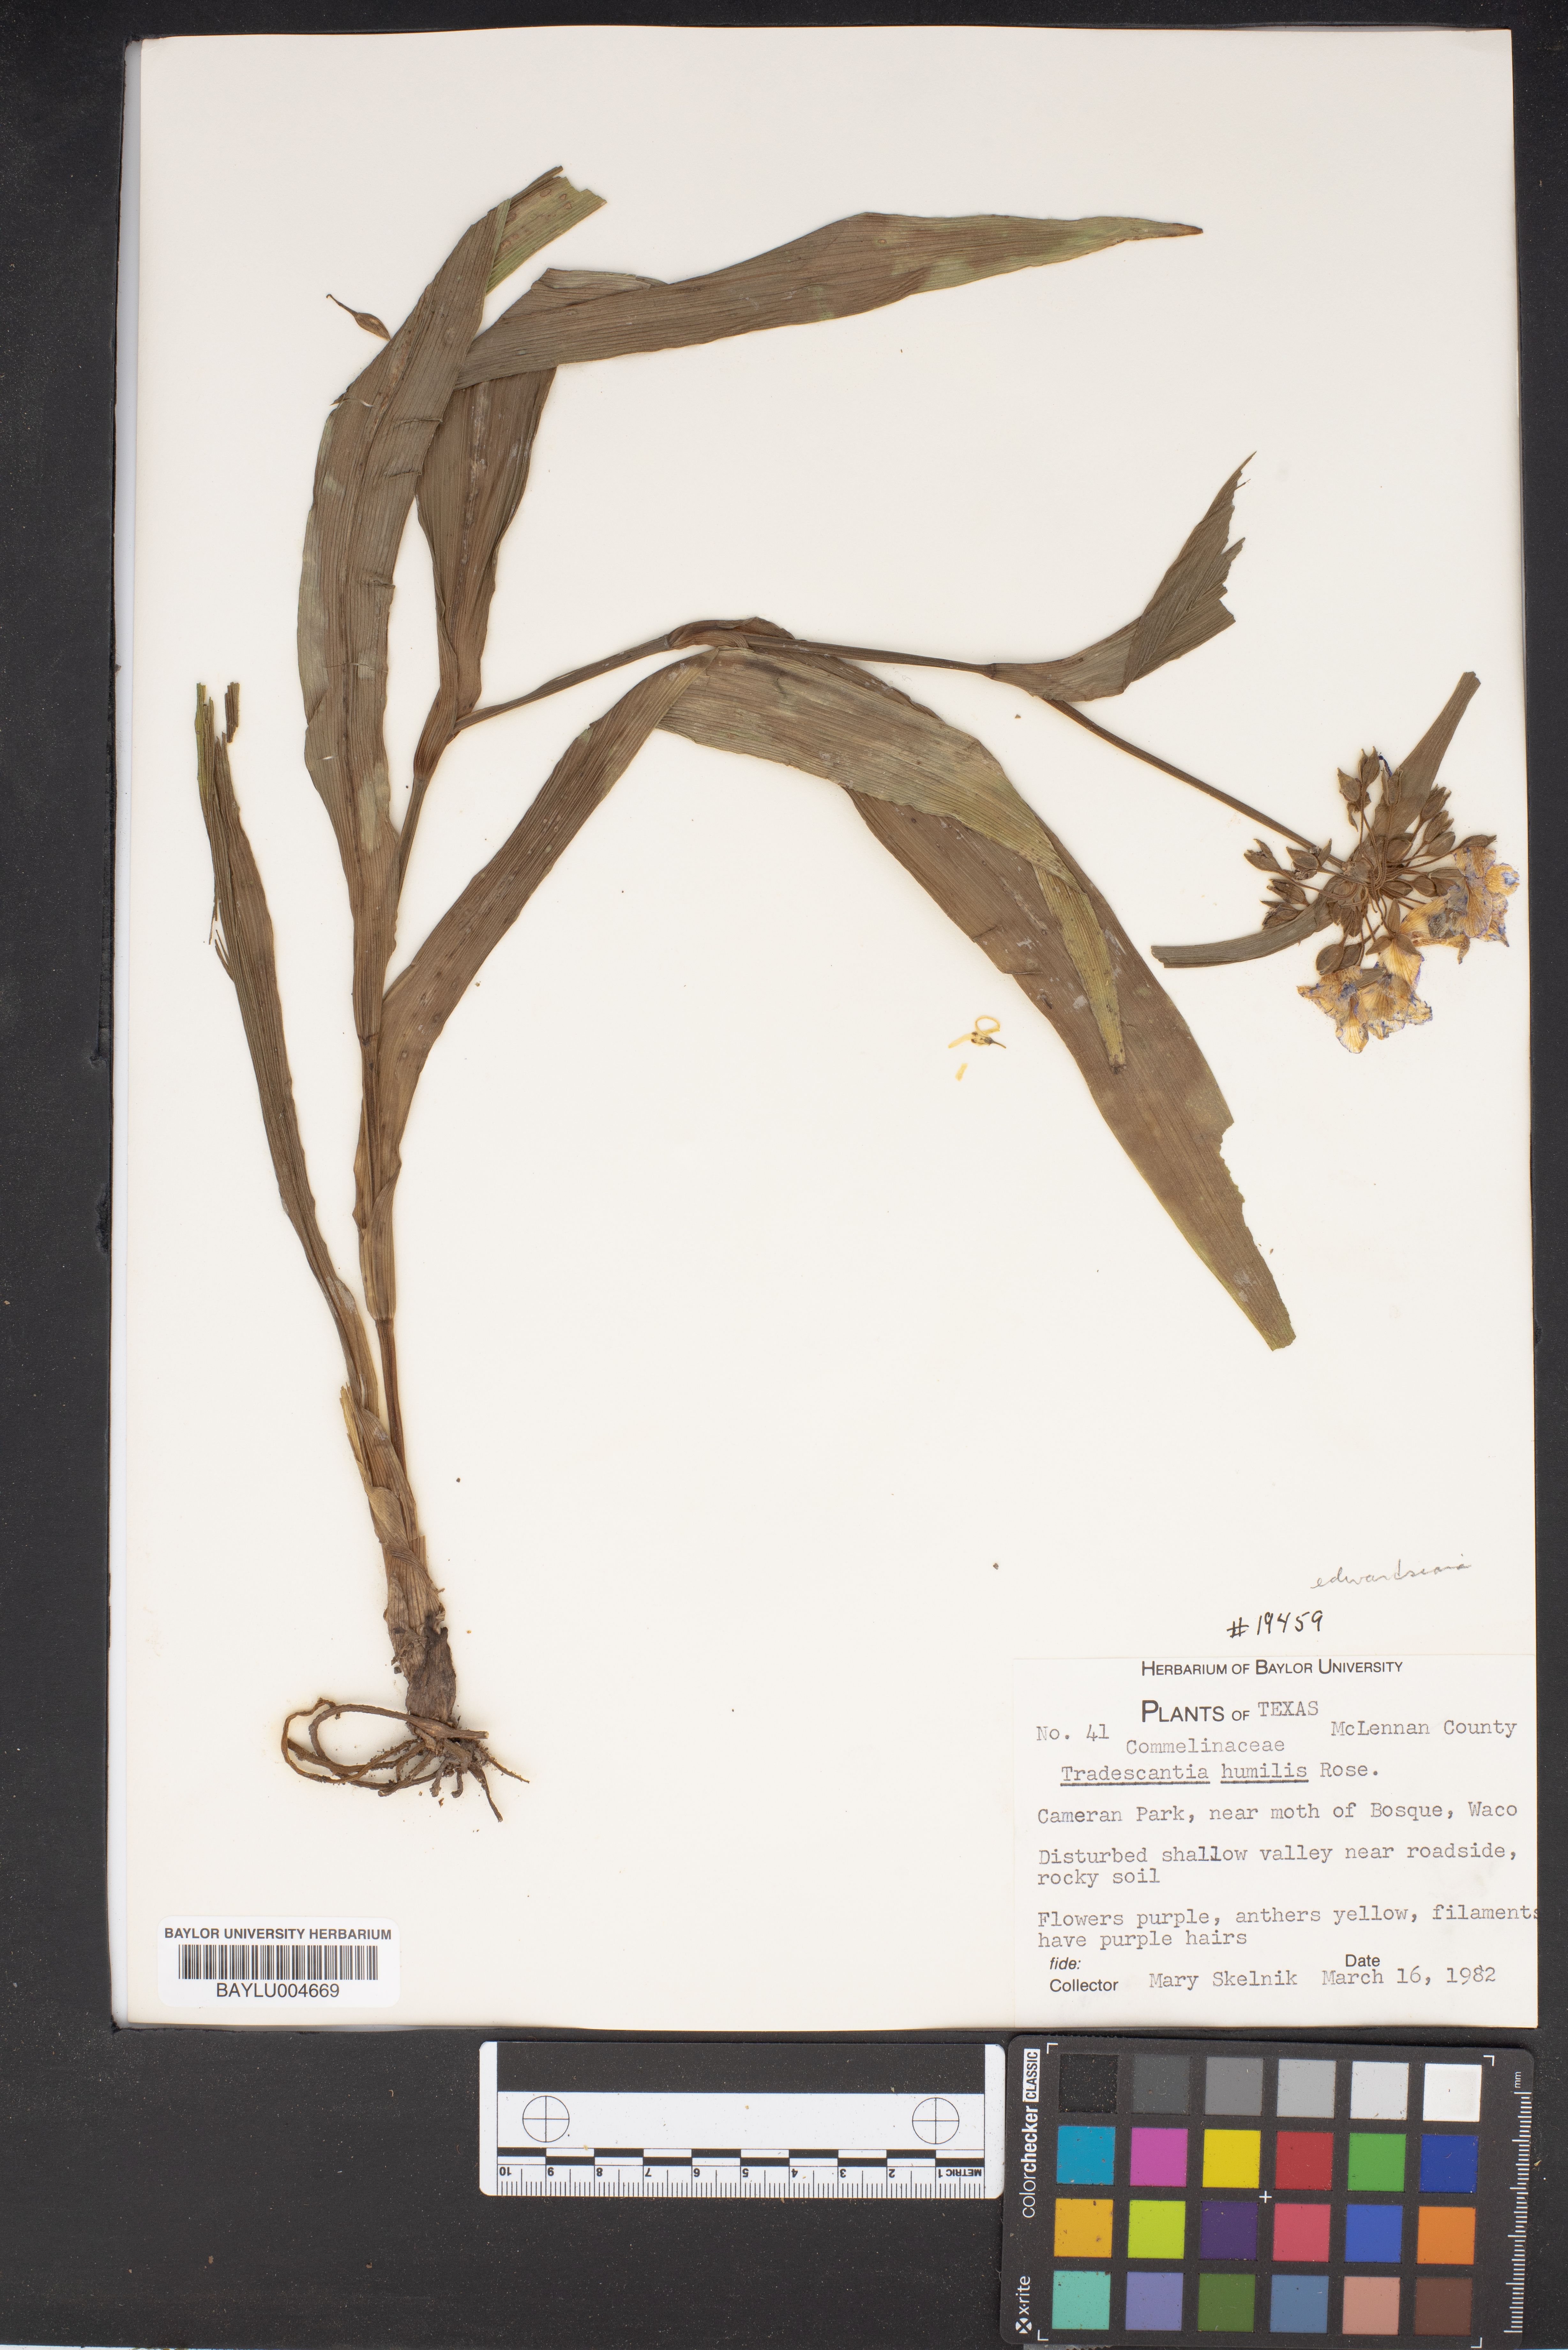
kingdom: Plantae
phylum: Tracheophyta
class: Liliopsida
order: Commelinales
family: Commelinaceae
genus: Tradescantia
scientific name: Tradescantia humilis
